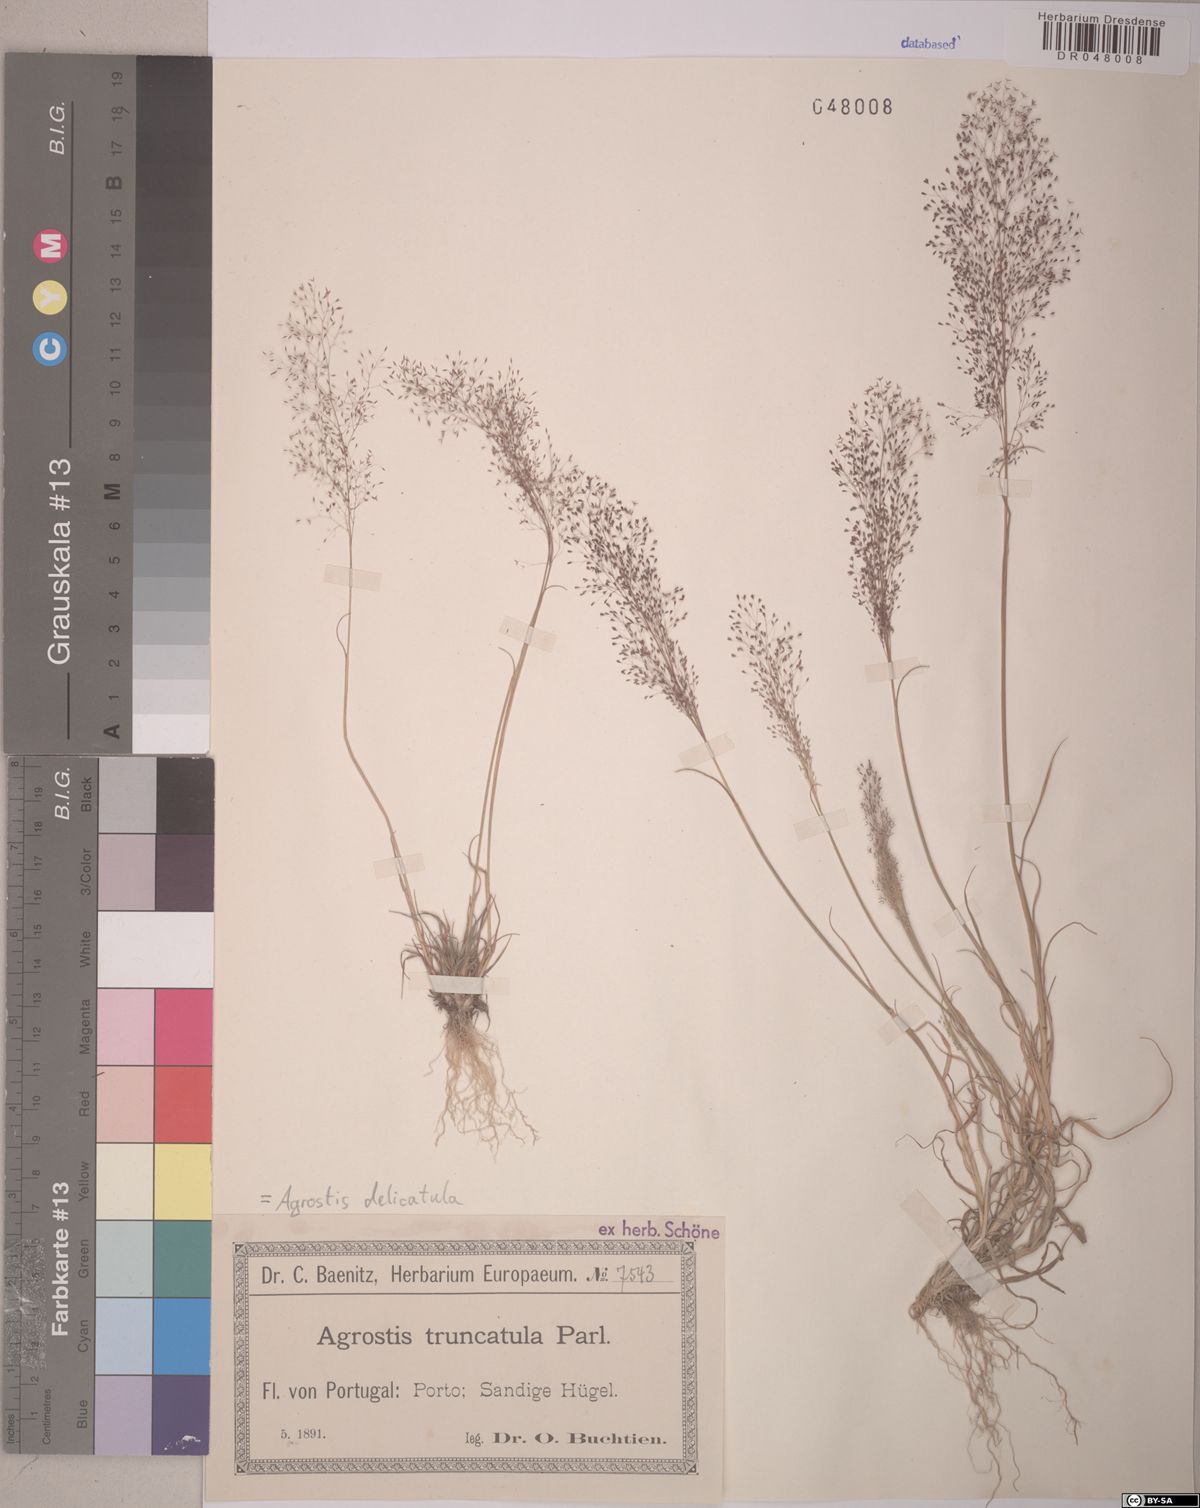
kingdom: Plantae
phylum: Tracheophyta
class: Liliopsida
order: Poales
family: Poaceae
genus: Agrostis
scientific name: Agrostis castellana
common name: Highland bent
